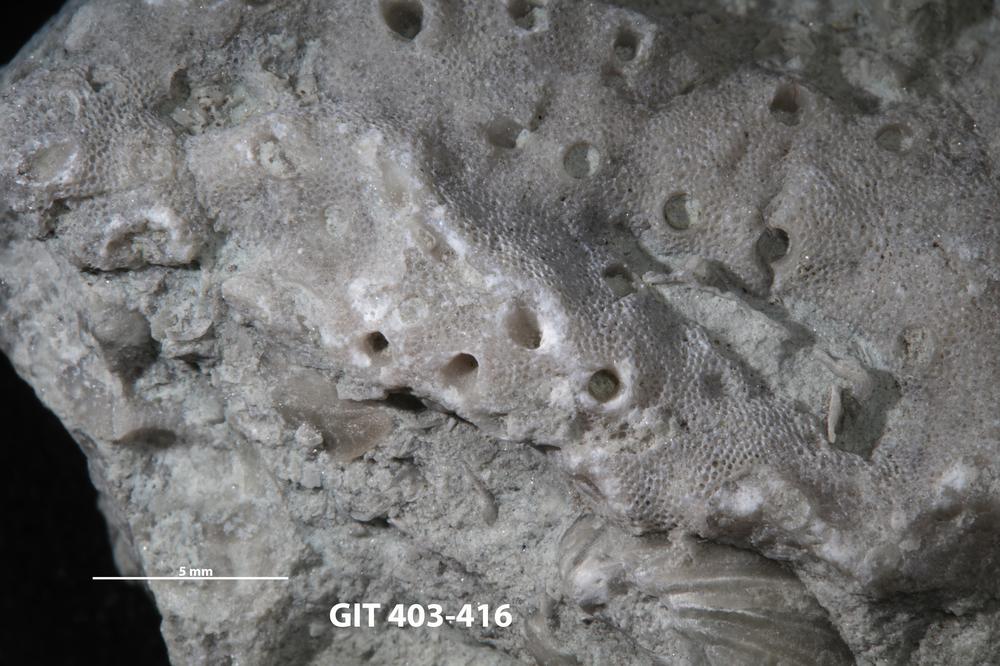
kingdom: Animalia
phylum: Bryozoa
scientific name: Bryozoa
